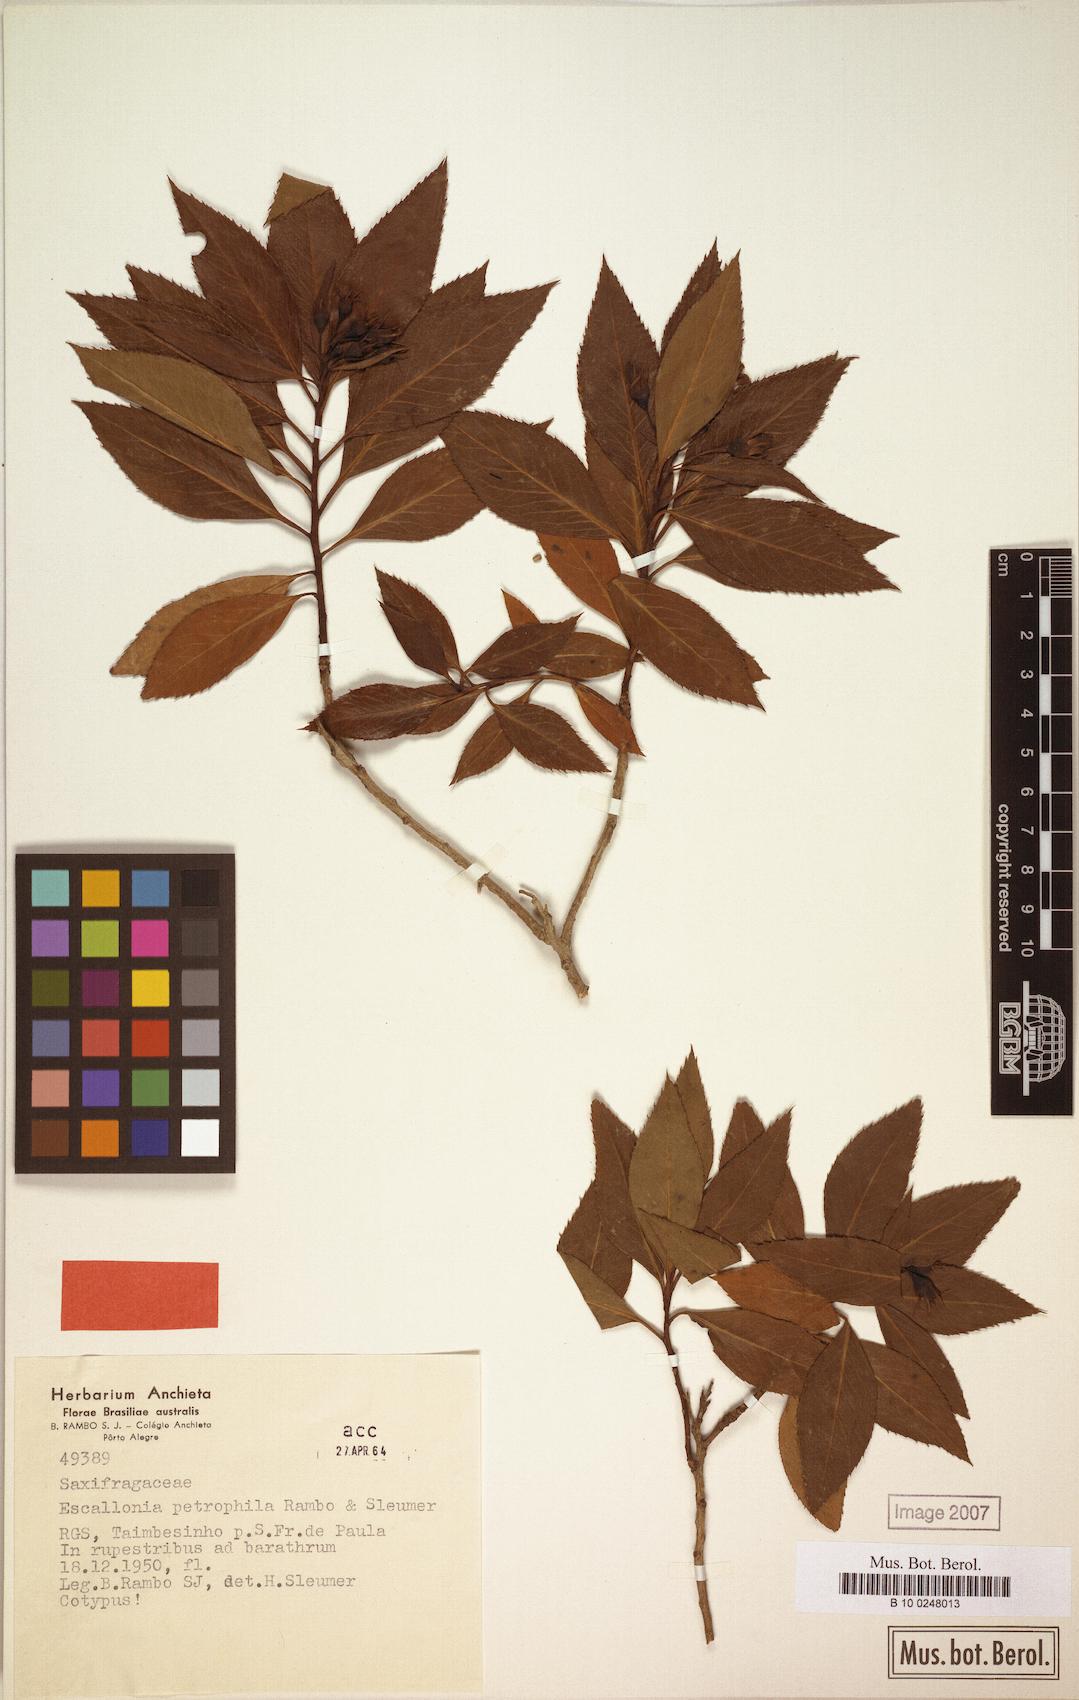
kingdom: Plantae
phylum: Tracheophyta
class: Magnoliopsida
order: Escalloniales
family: Escalloniaceae
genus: Escallonia
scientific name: Escallonia petrophila
